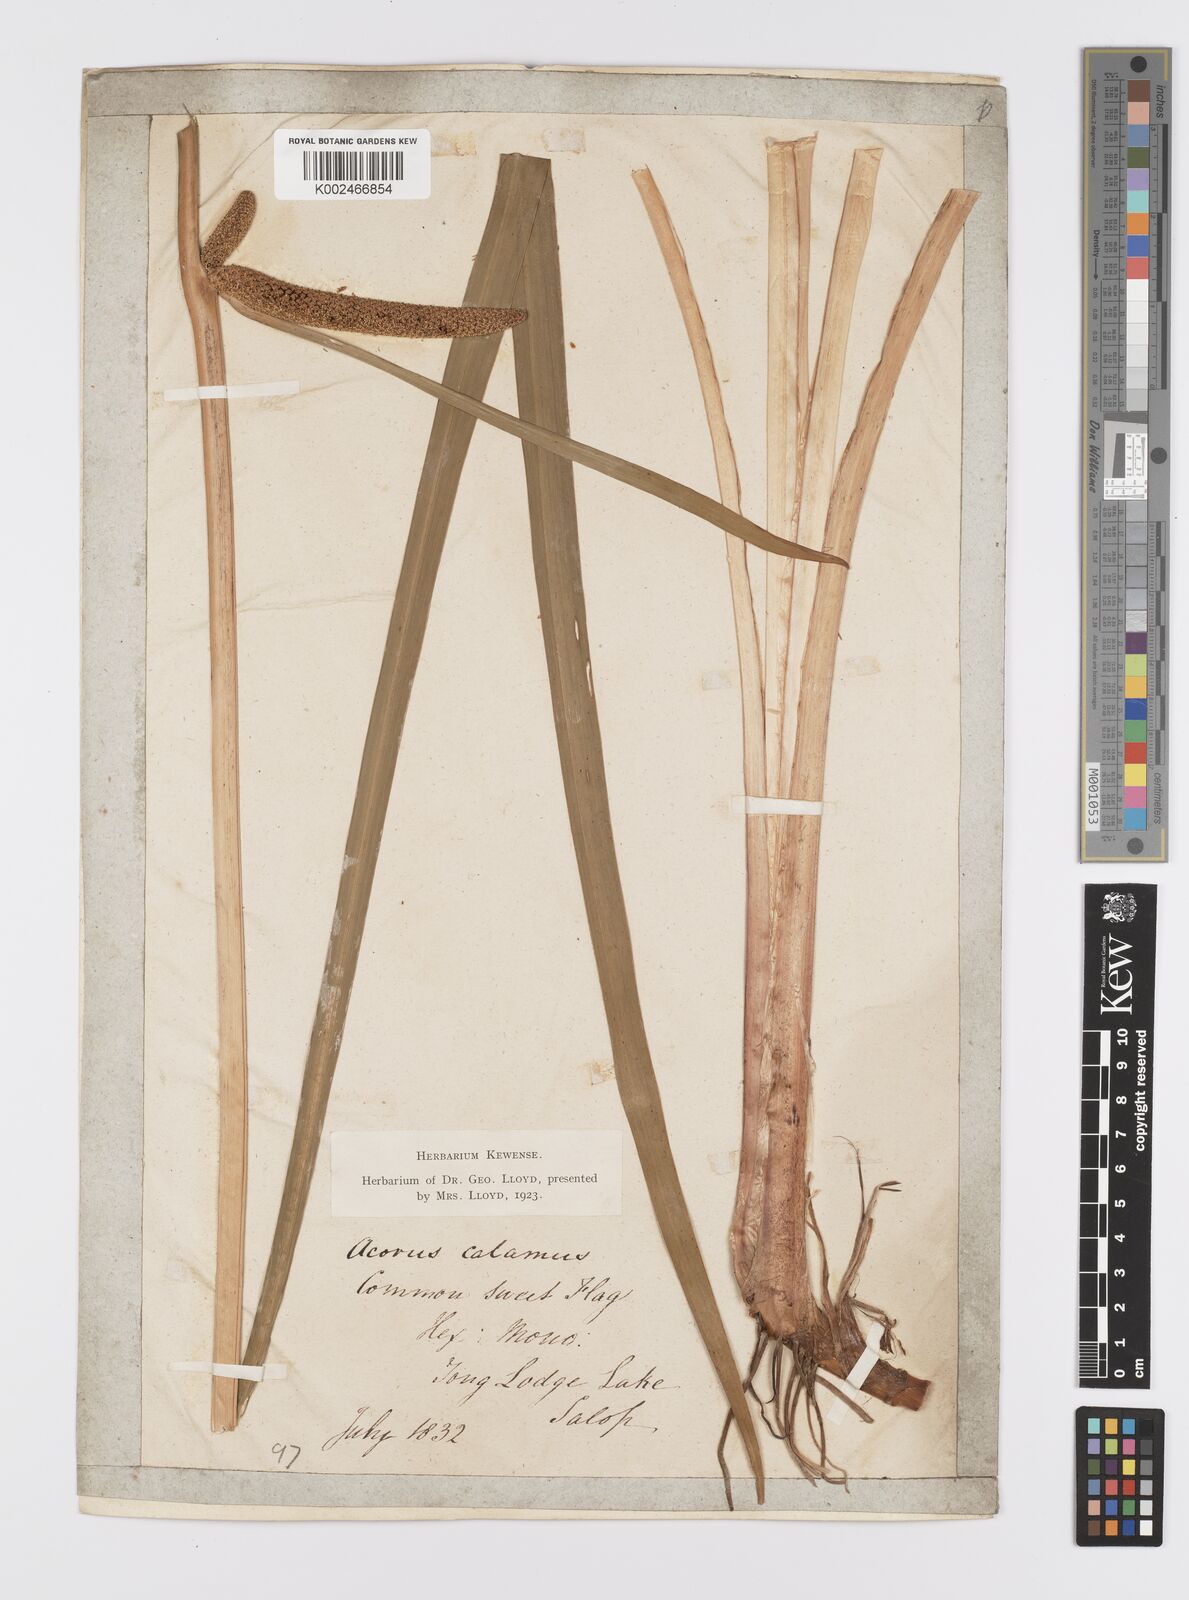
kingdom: Plantae
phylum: Tracheophyta
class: Liliopsida
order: Acorales
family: Acoraceae
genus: Acorus
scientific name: Acorus calamus
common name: Sweet-flag
